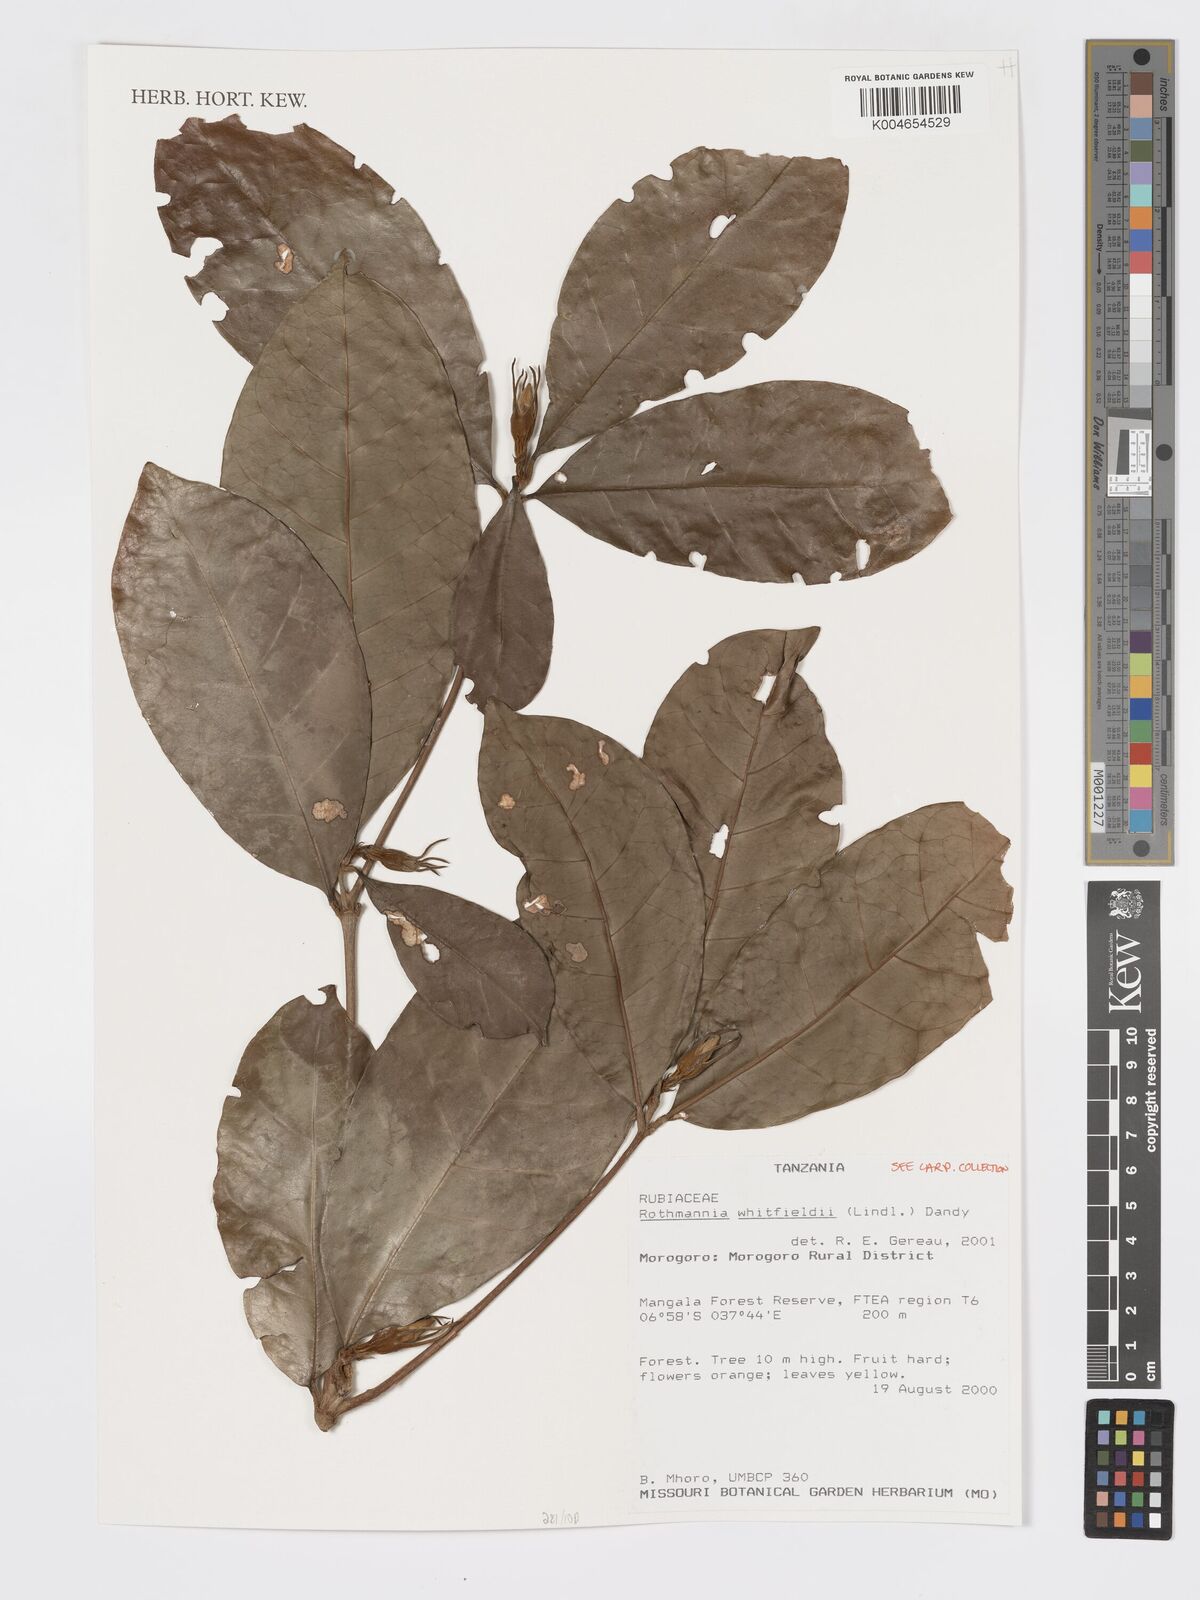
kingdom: Plantae
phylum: Tracheophyta
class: Magnoliopsida
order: Gentianales
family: Rubiaceae
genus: Rothmannia
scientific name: Rothmannia whitfieldii
